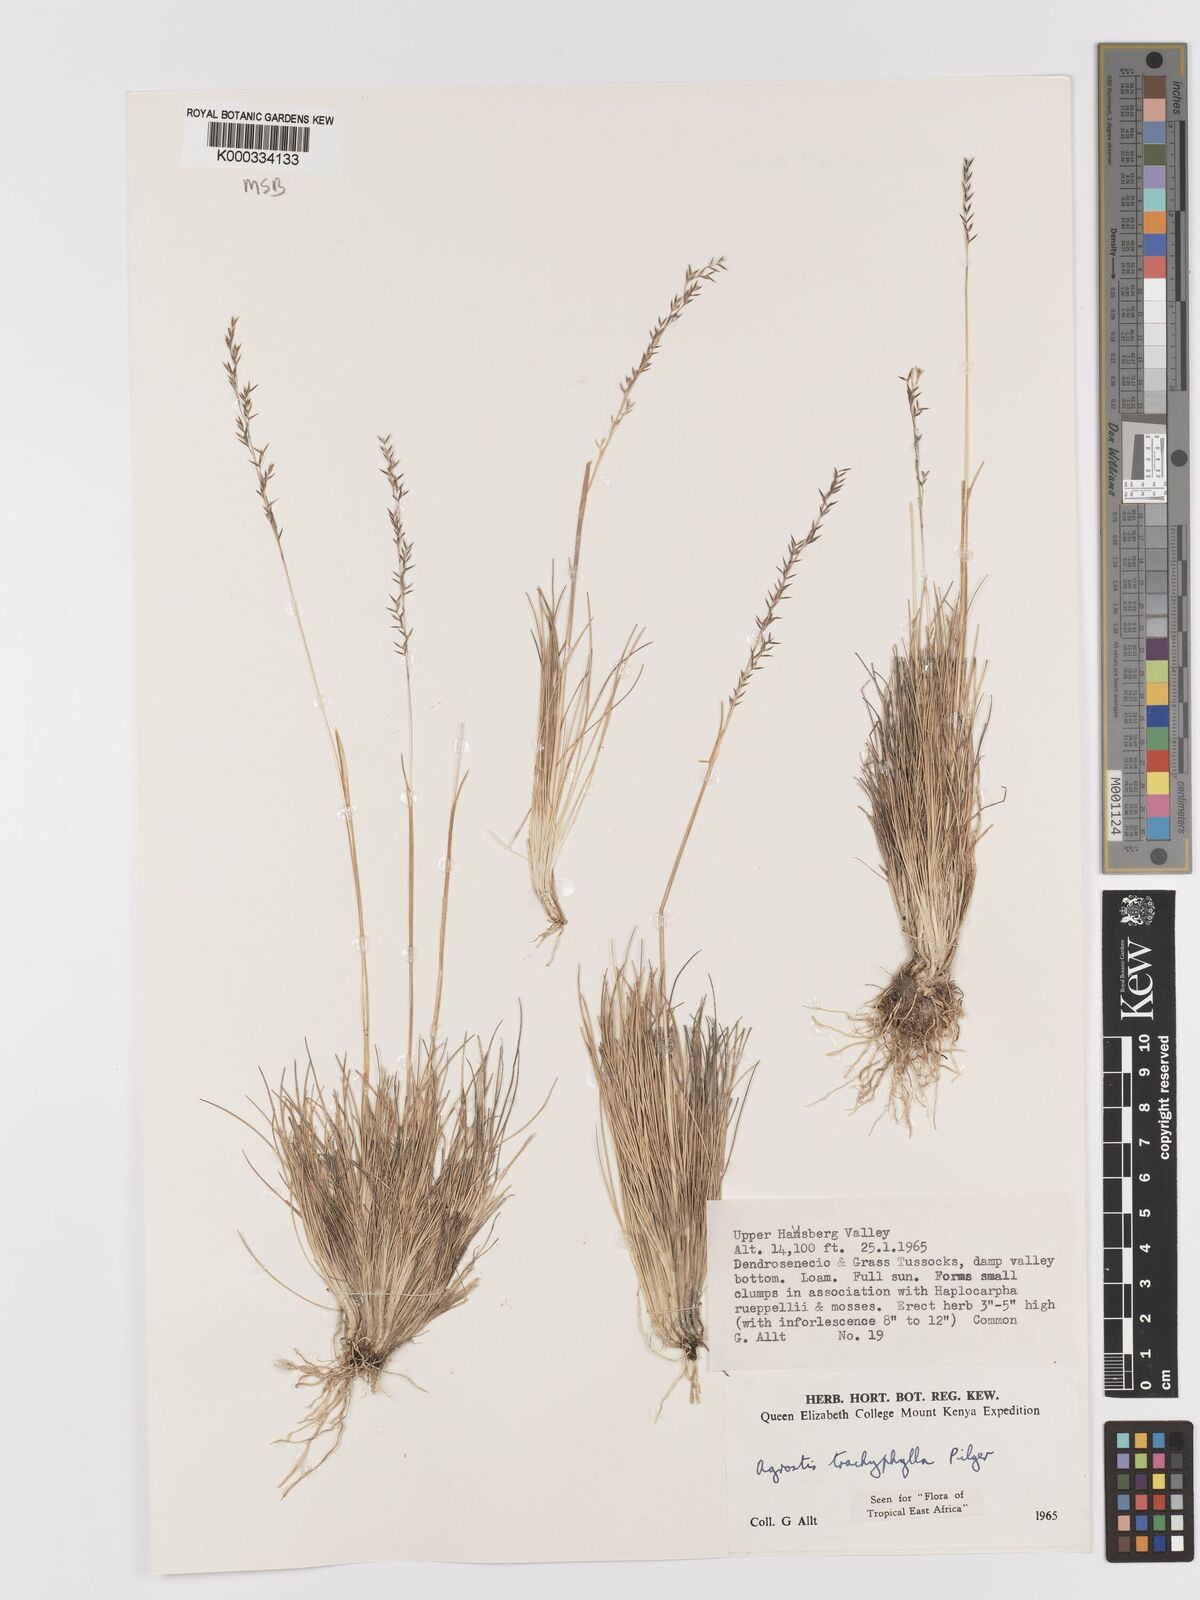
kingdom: Plantae
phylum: Tracheophyta
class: Liliopsida
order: Poales
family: Poaceae
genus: Agrostis
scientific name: Agrostis trachyphylla
